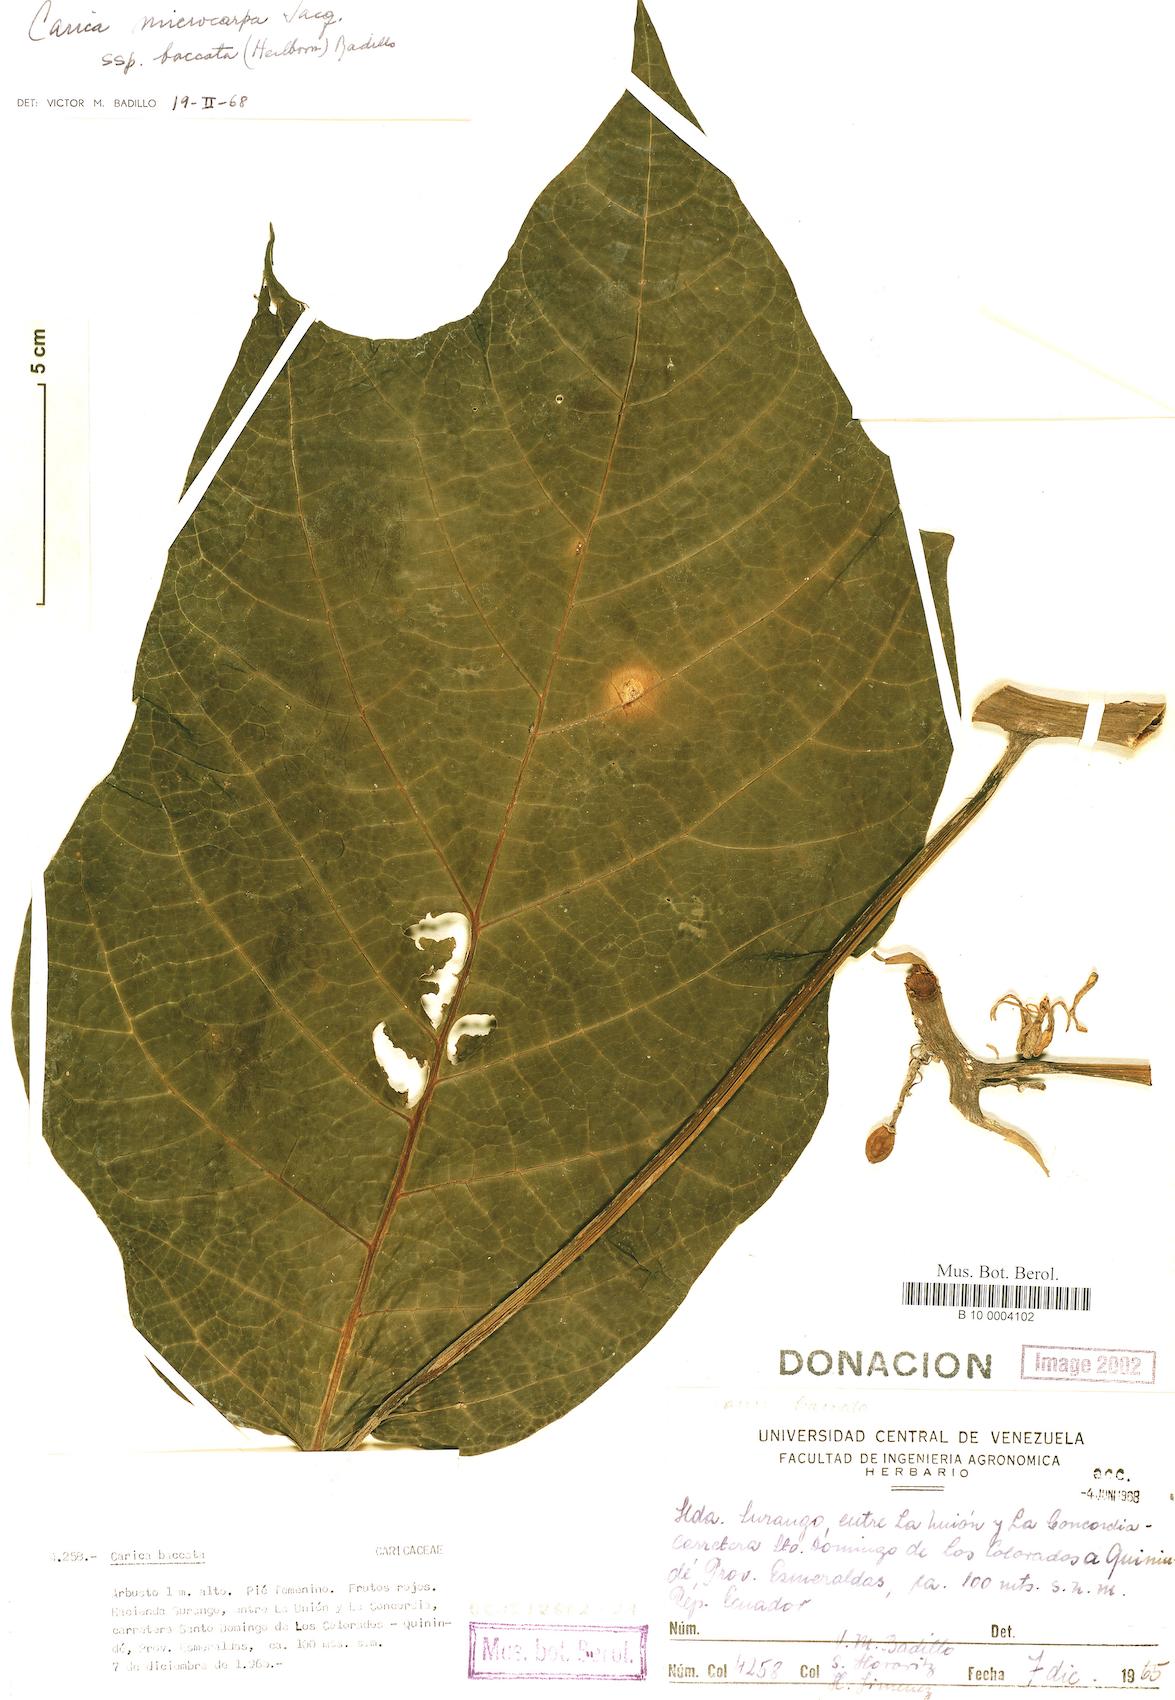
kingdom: Plantae
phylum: Tracheophyta
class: Magnoliopsida
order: Brassicales
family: Caricaceae
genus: Vasconcellea
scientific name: Vasconcellea microcarpa
